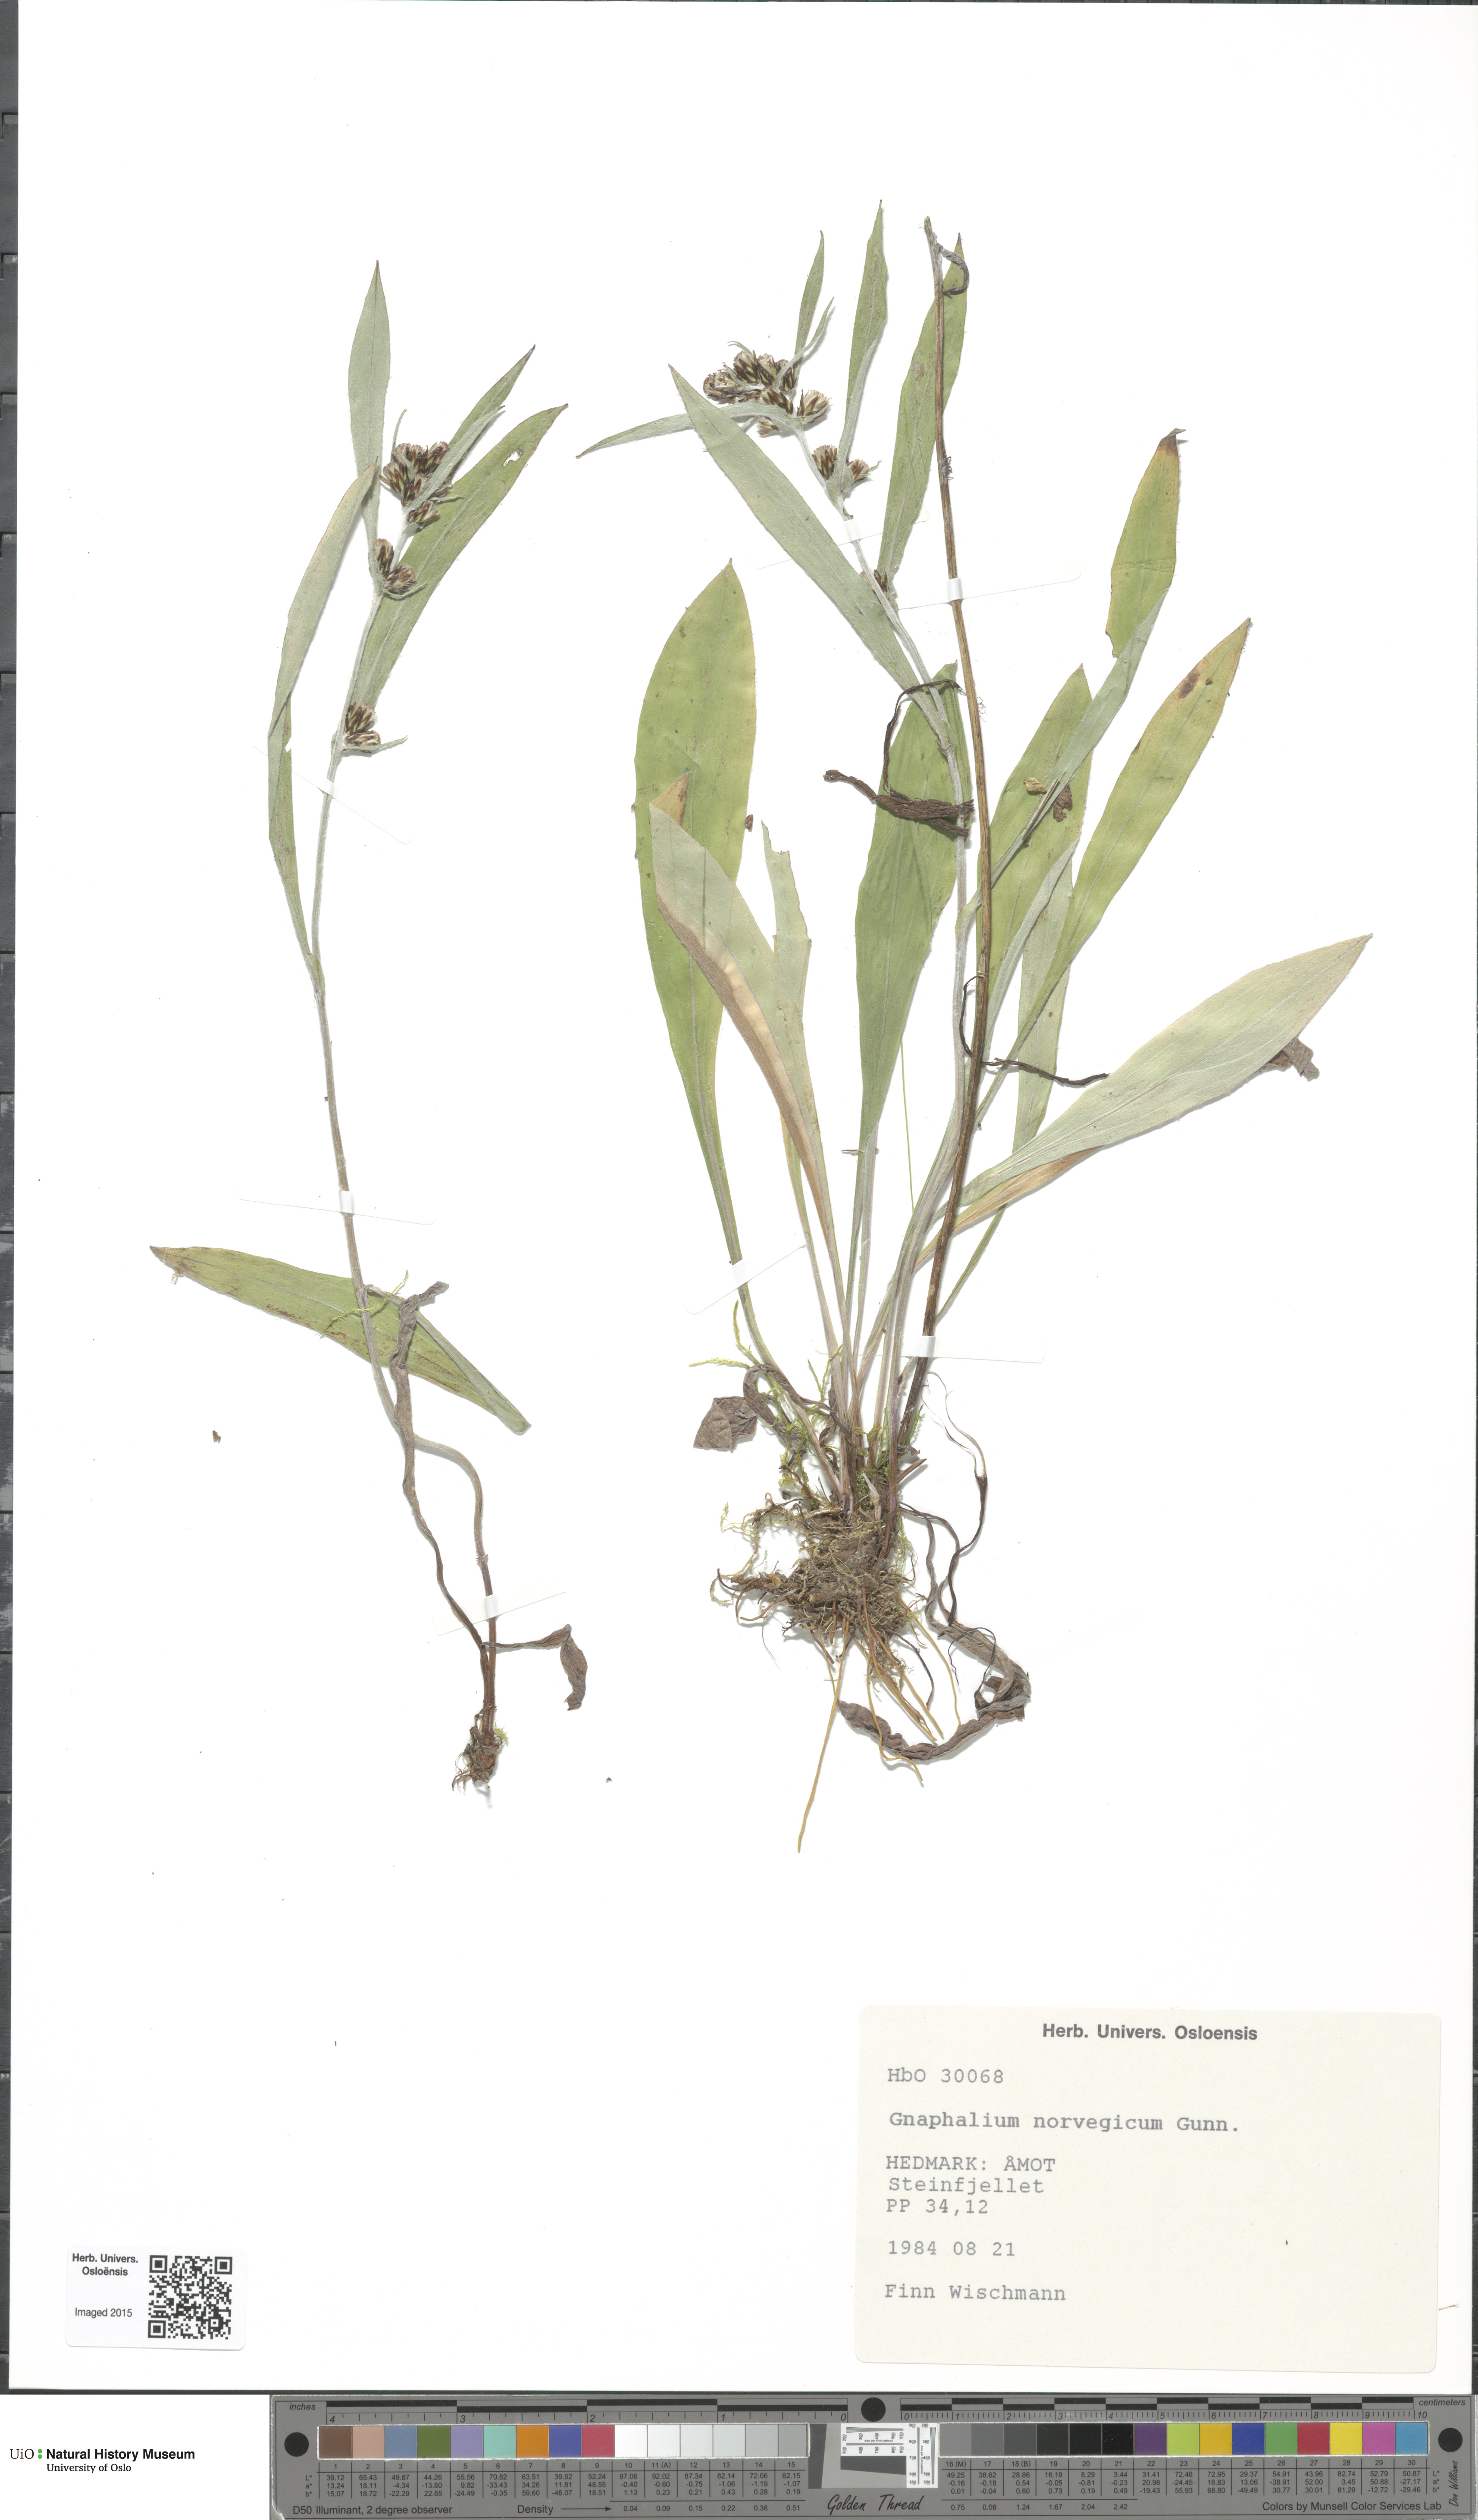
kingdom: Plantae
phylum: Tracheophyta
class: Magnoliopsida
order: Asterales
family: Asteraceae
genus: Omalotheca
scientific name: Omalotheca norvegica
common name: Norwegian arctic-cudweed
